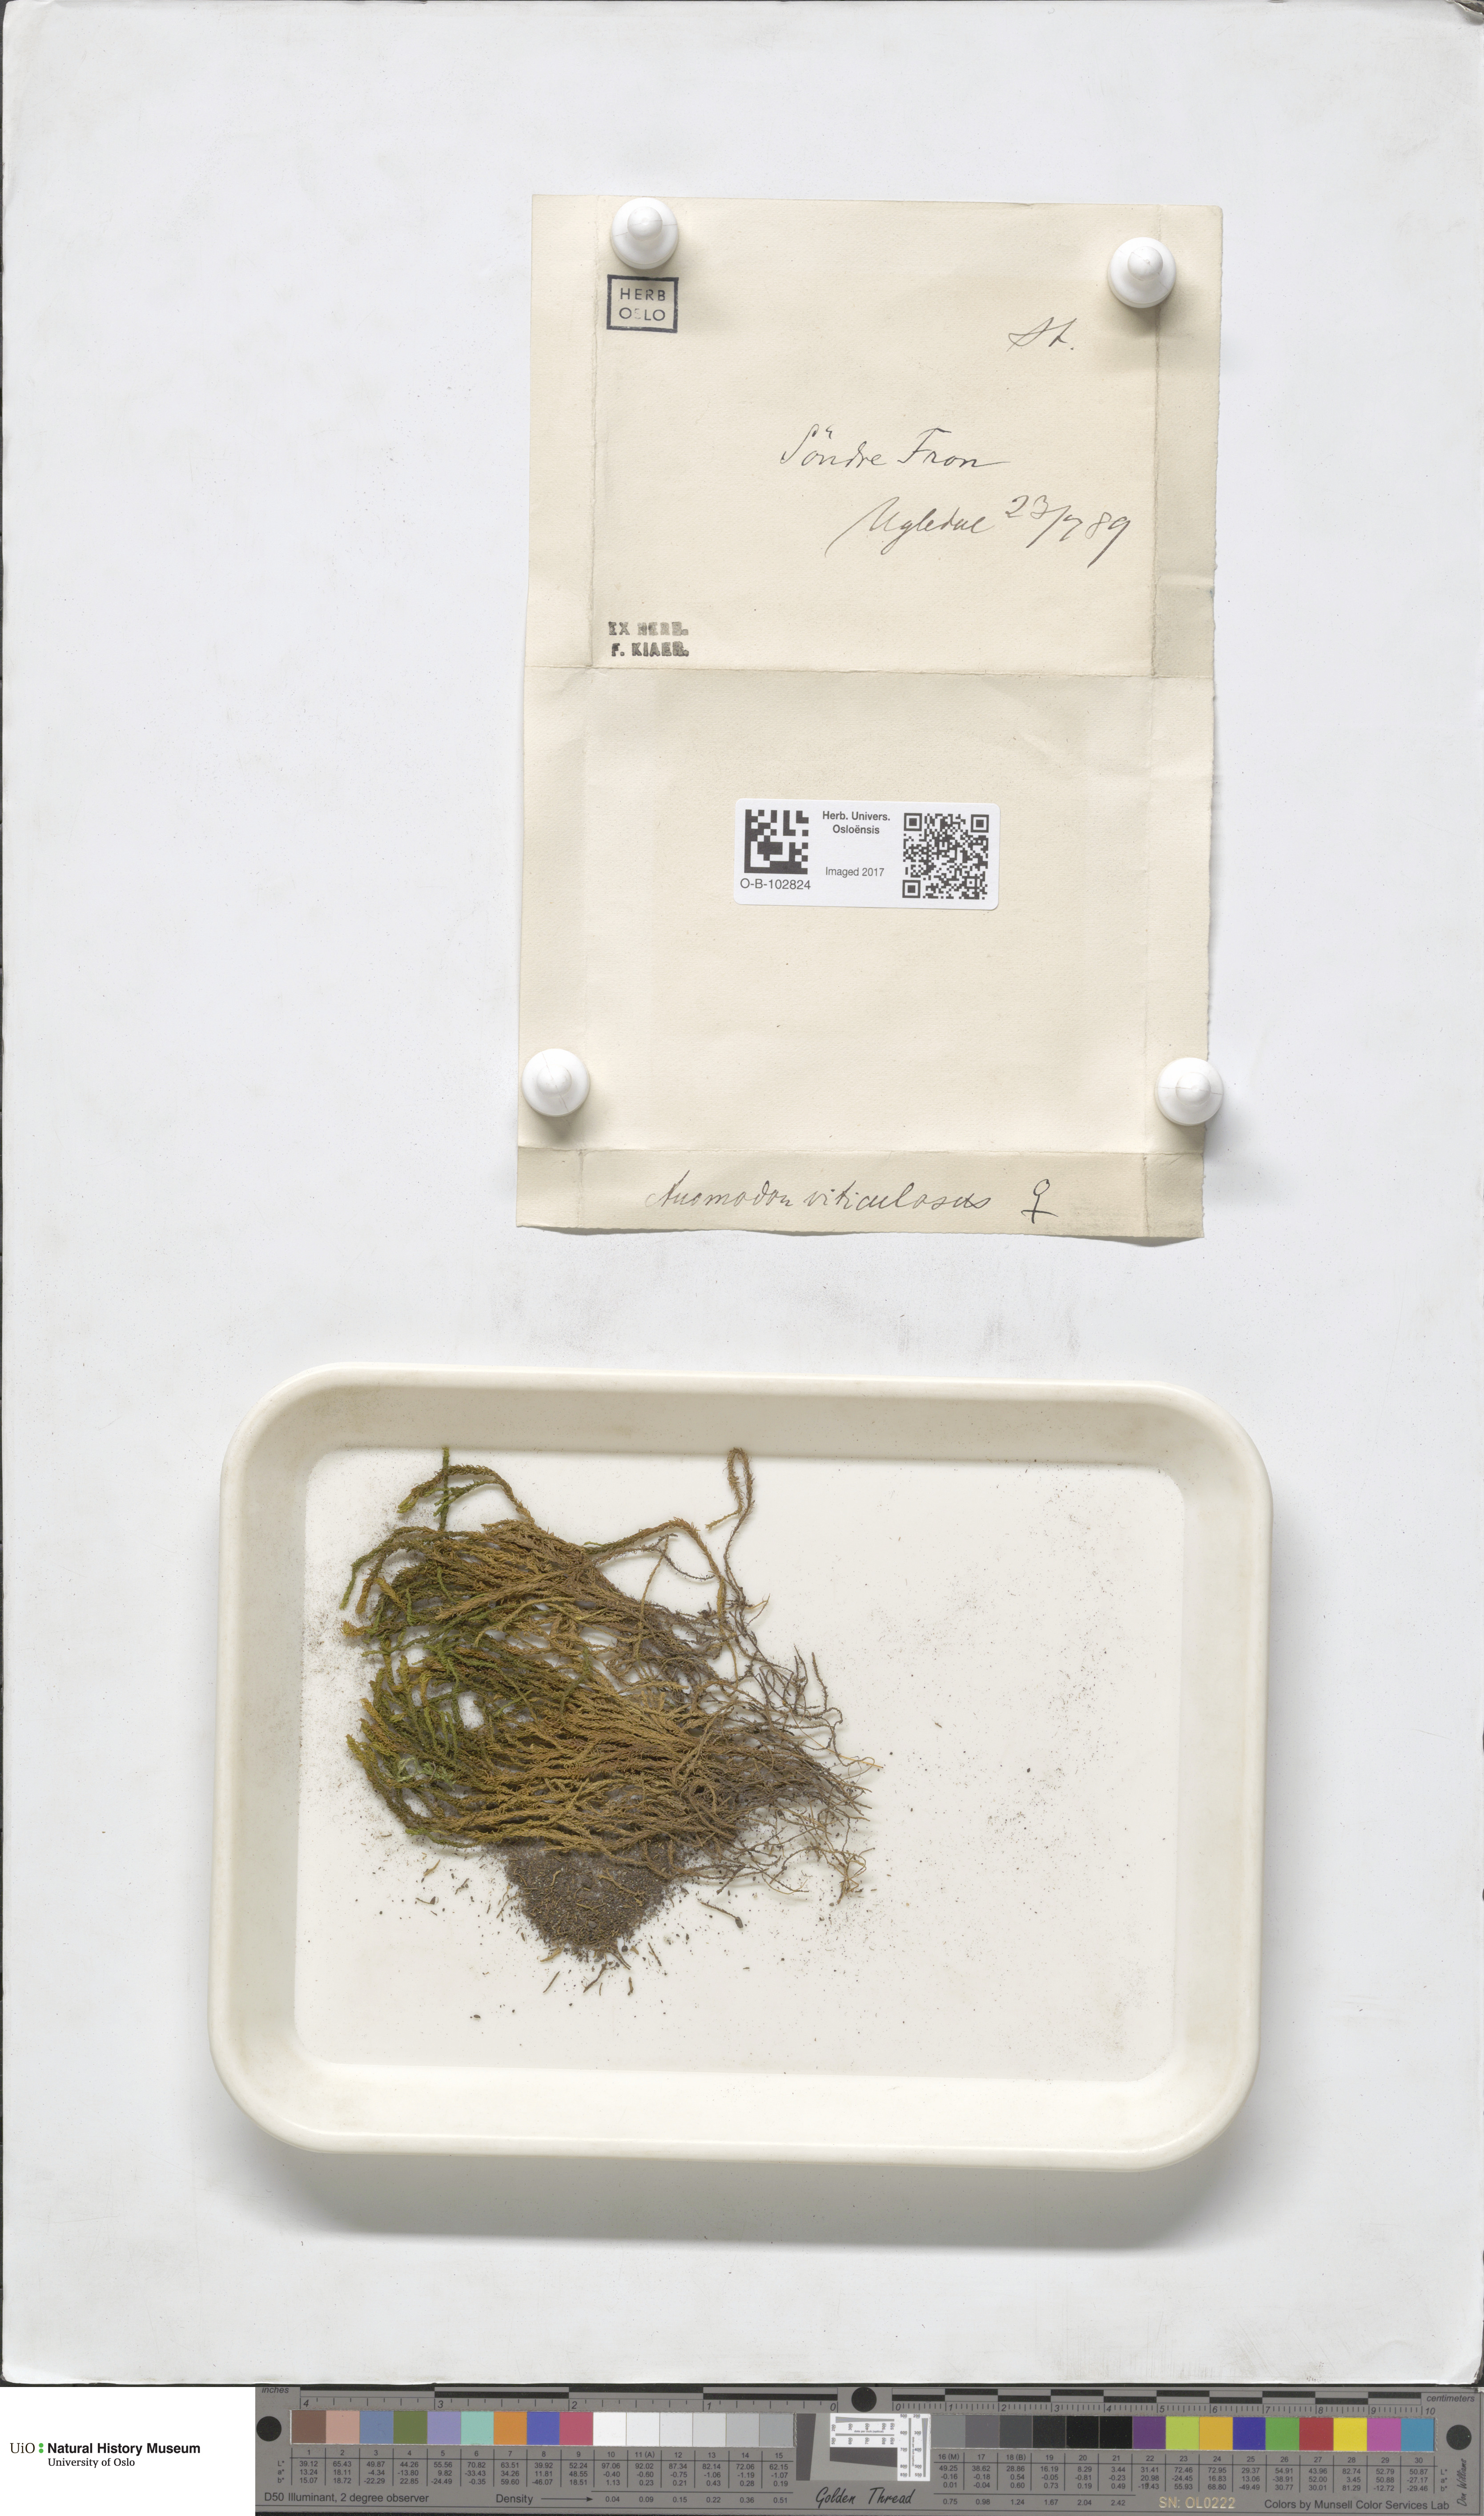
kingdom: Plantae
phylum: Bryophyta
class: Bryopsida
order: Hypnales
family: Anomodontaceae
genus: Anomodon
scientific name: Anomodon viticulosus
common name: Tall anomodon
